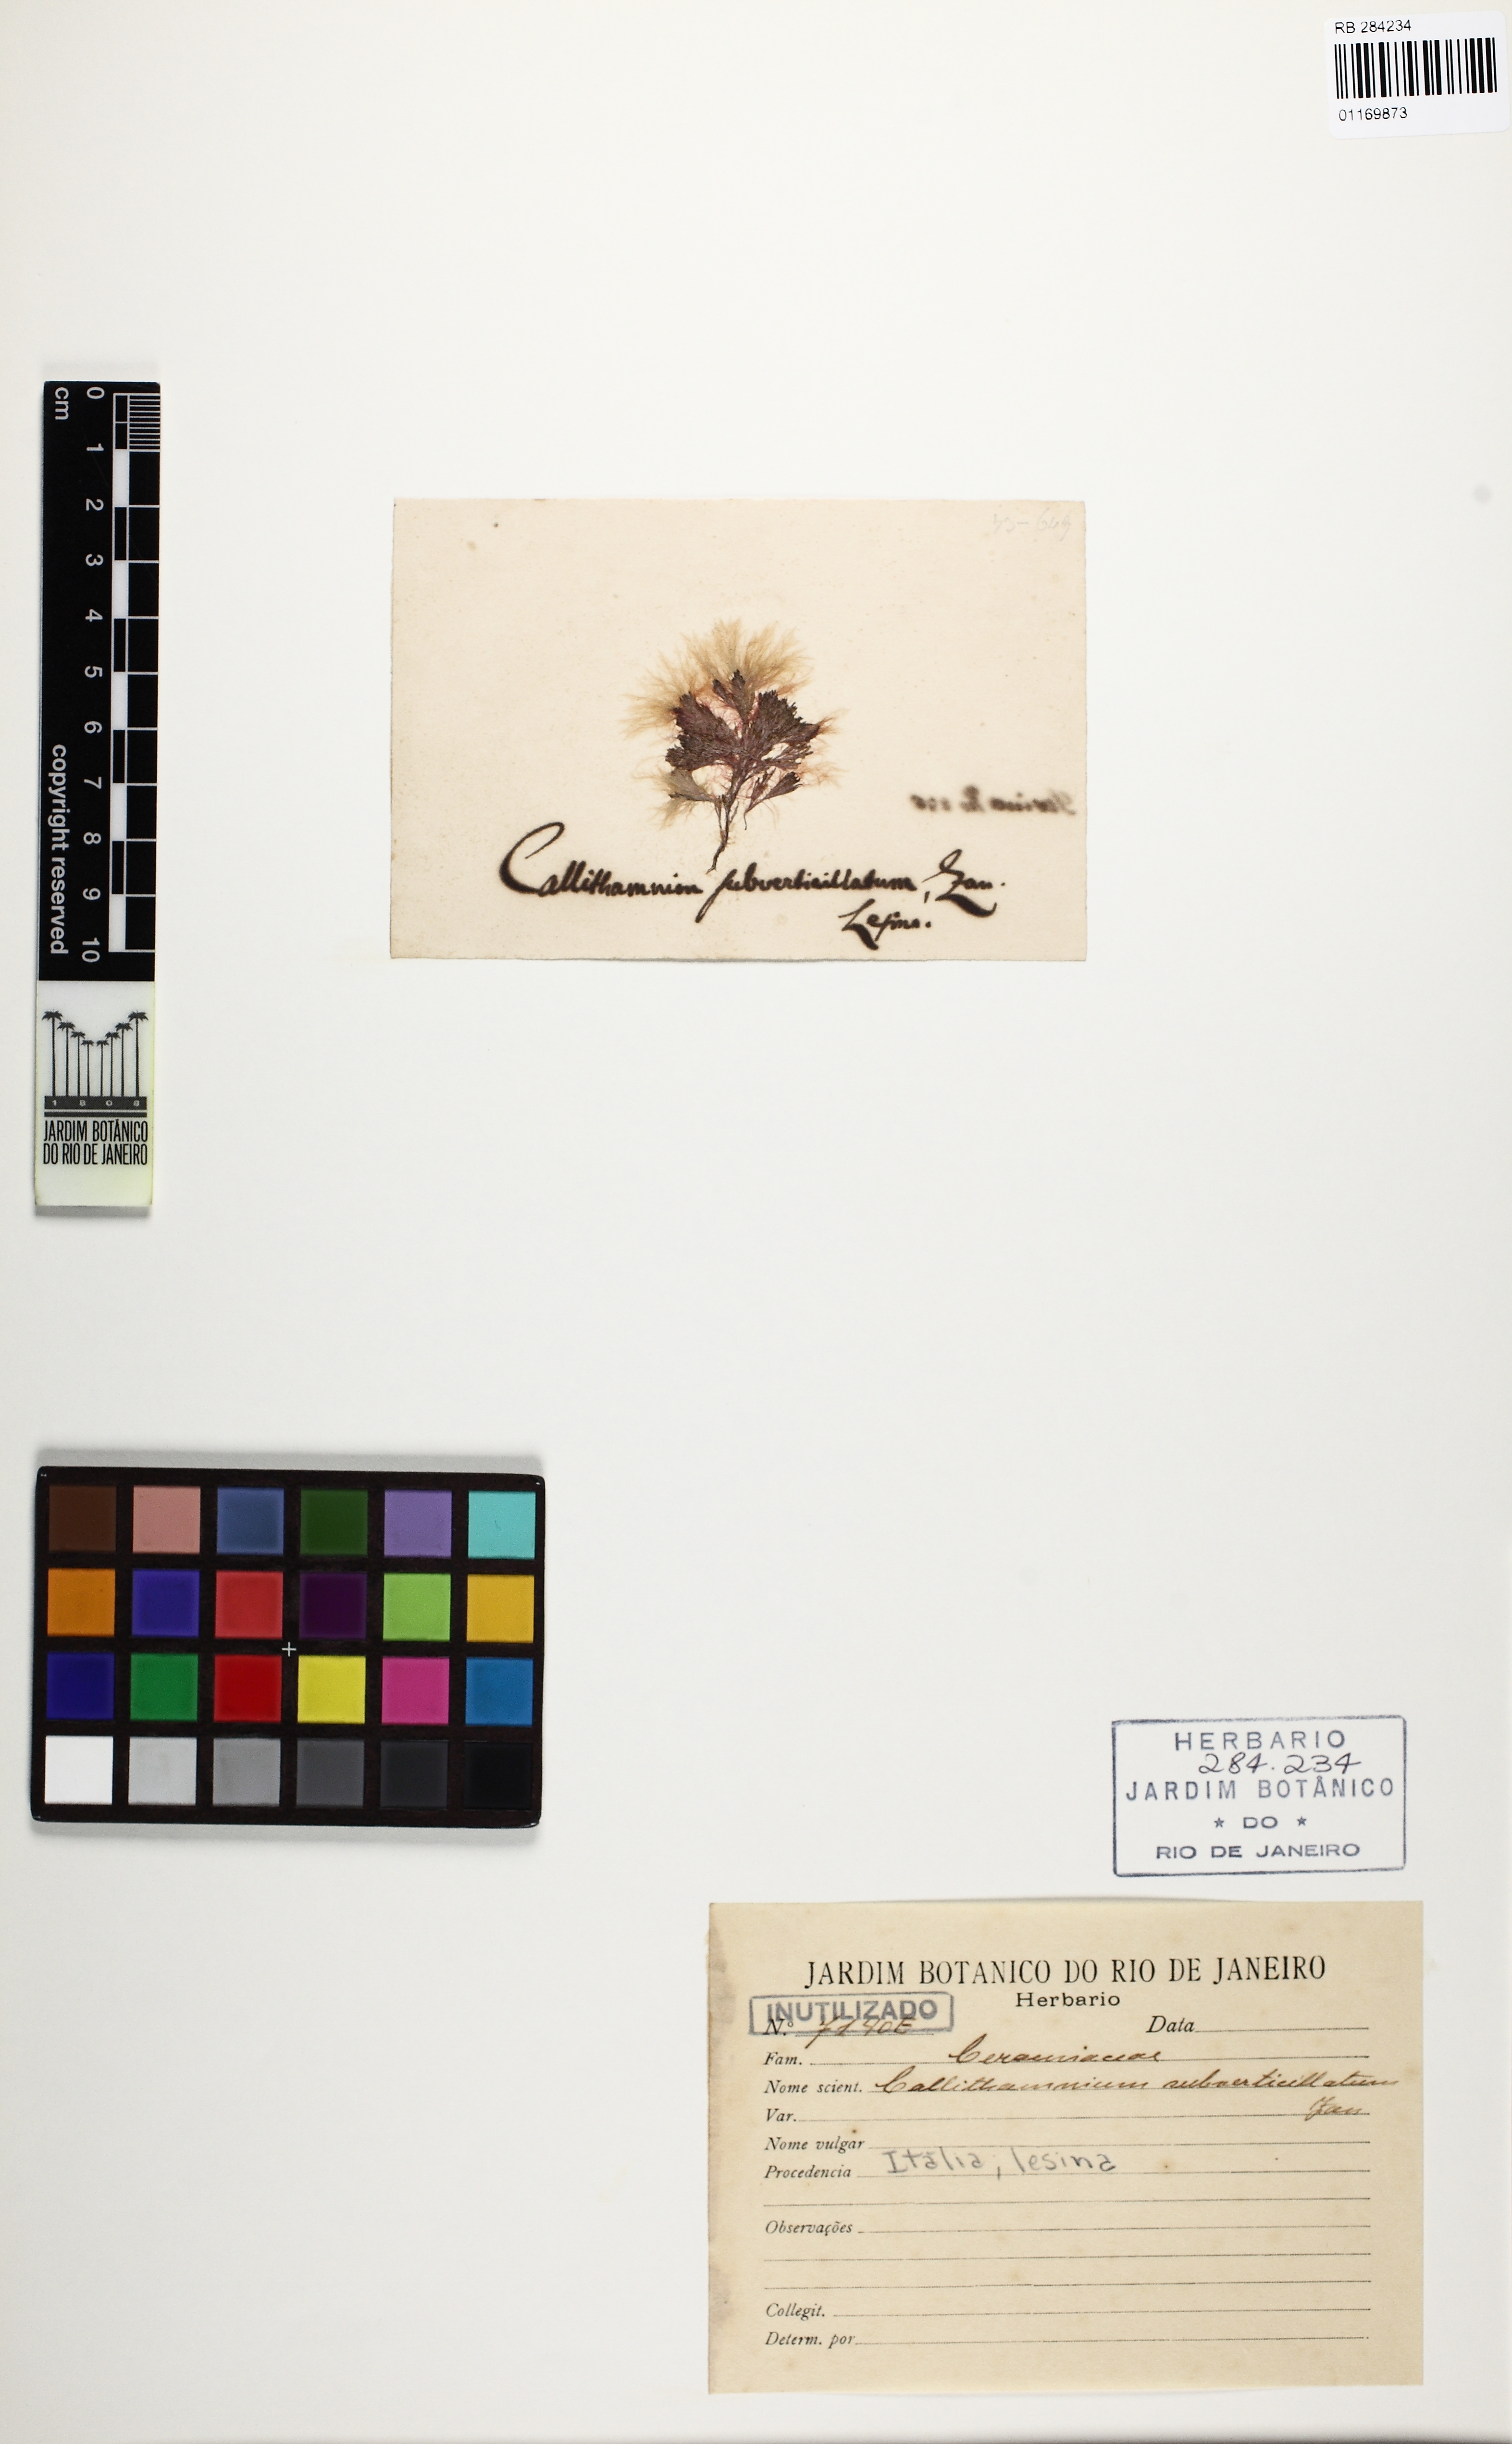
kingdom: Plantae
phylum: Rhodophyta
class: Florideophyceae
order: Ceramiales
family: Callithamniaceae
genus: Callithamnion
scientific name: Callithamnion
